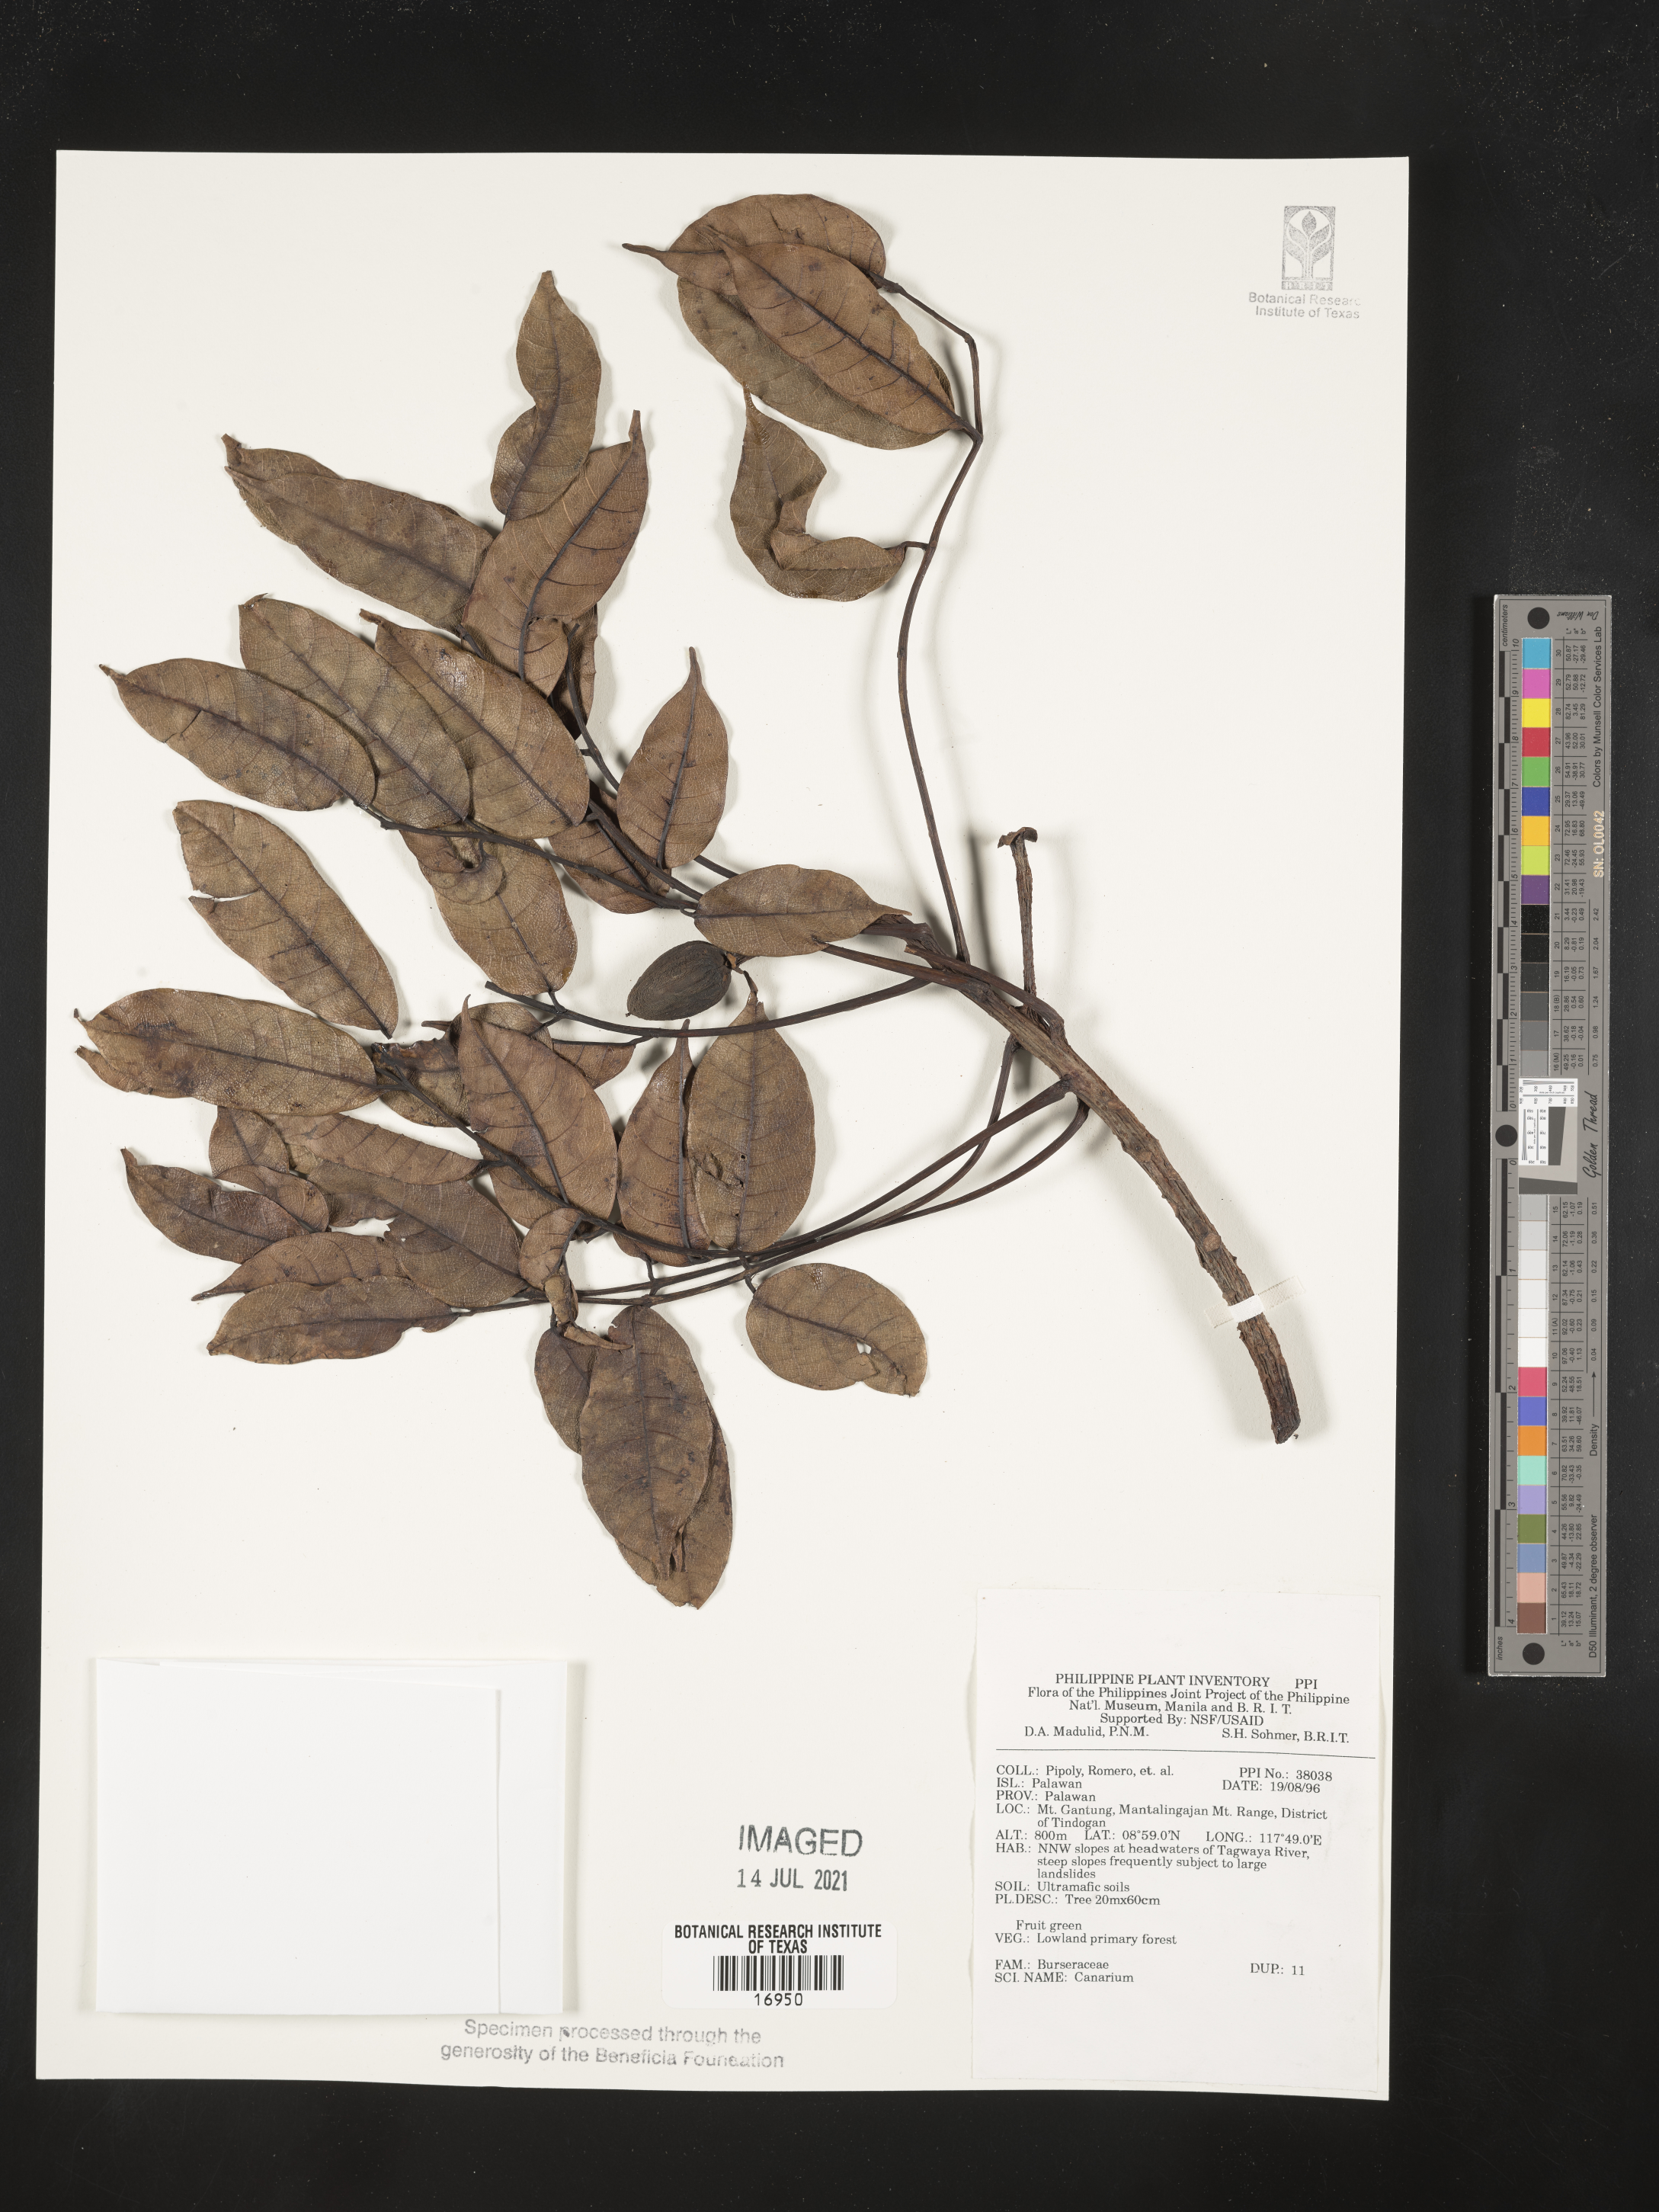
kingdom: Plantae
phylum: Tracheophyta
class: Magnoliopsida
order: Sapindales
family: Burseraceae
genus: Canarium
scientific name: Canarium
